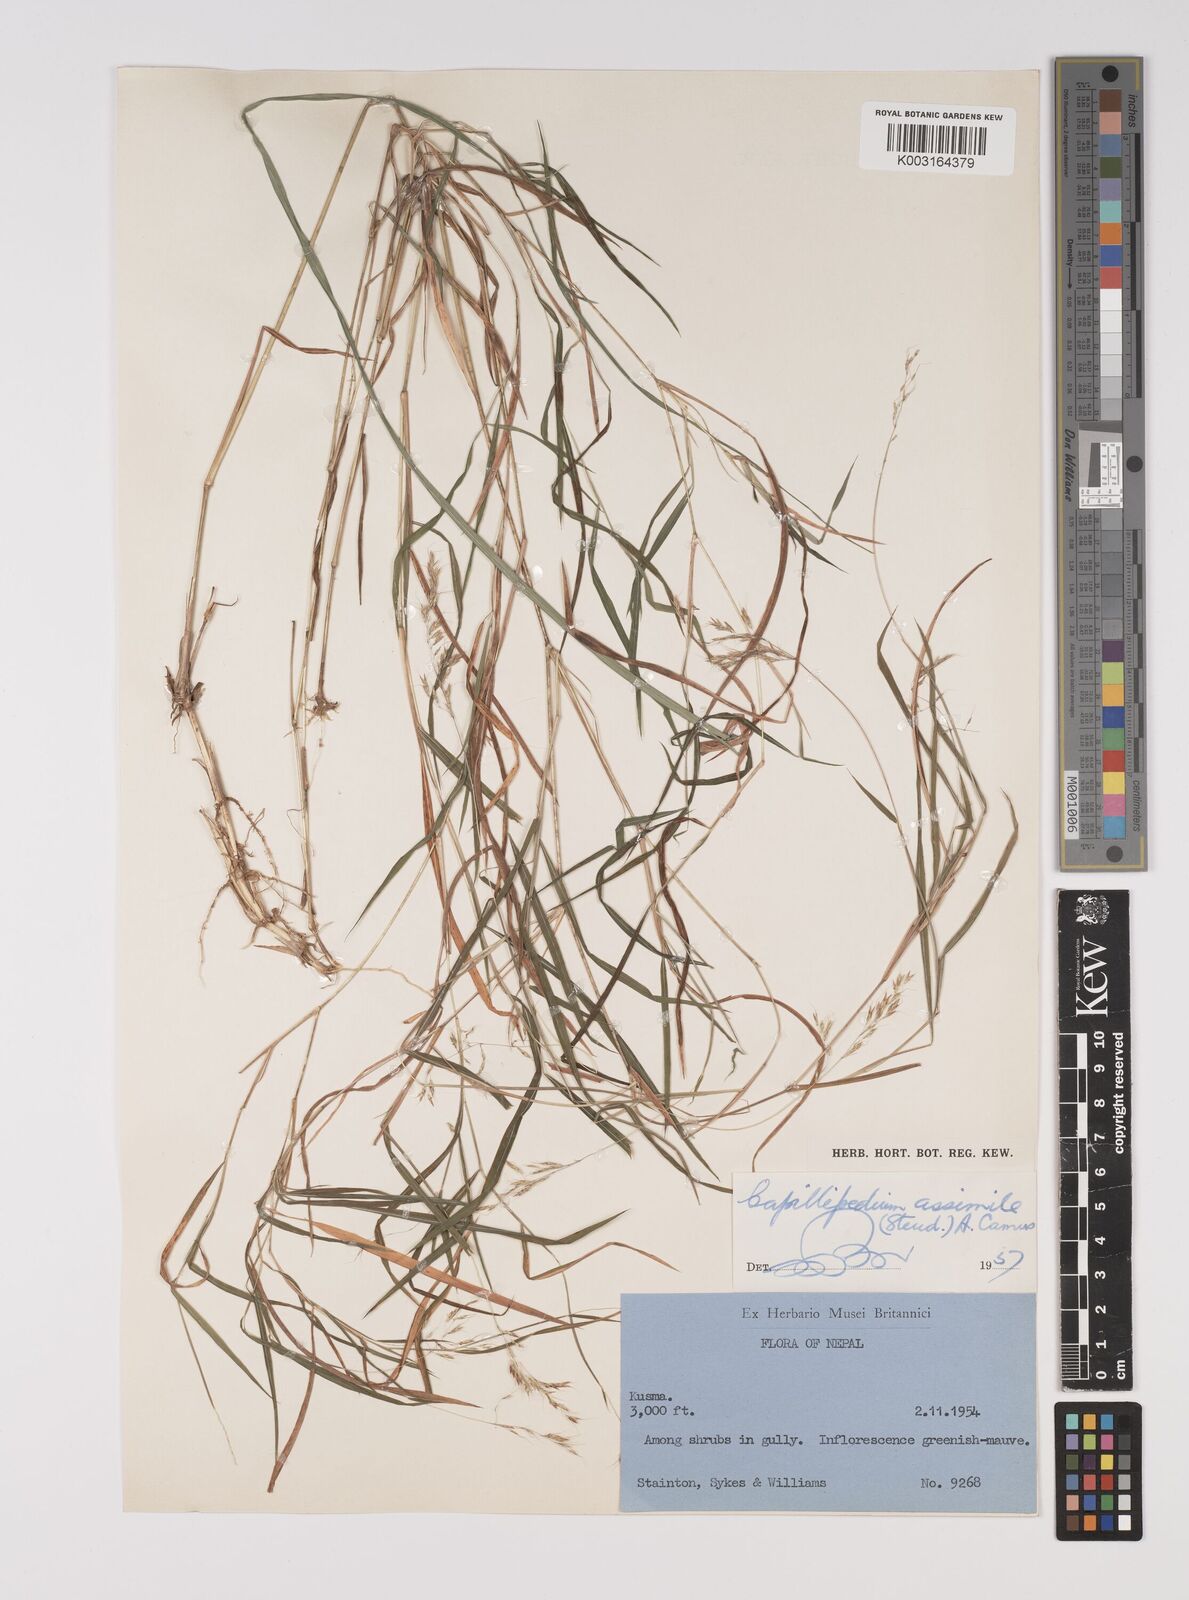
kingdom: Plantae
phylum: Tracheophyta
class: Liliopsida
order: Poales
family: Poaceae
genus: Capillipedium
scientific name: Capillipedium assimile
